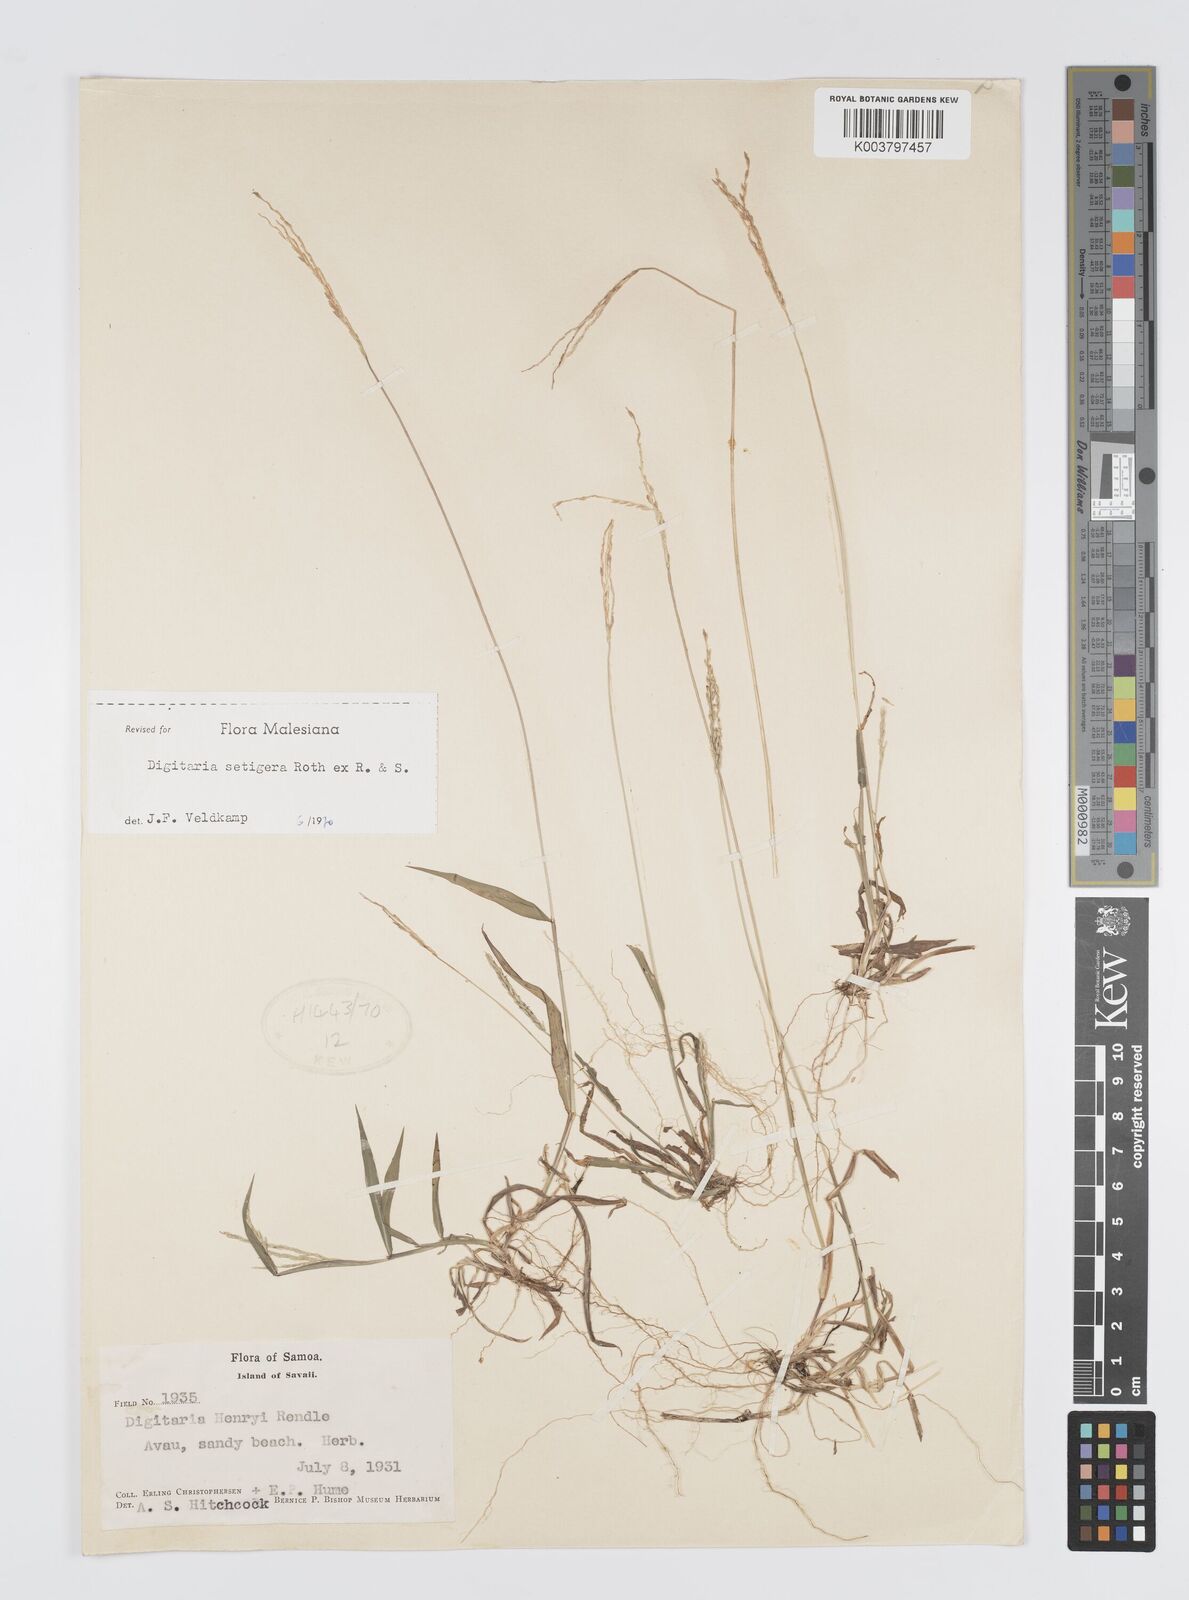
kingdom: Plantae
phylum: Tracheophyta
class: Liliopsida
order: Poales
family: Poaceae
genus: Digitaria
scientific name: Digitaria setigera
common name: East indian crabgrass
